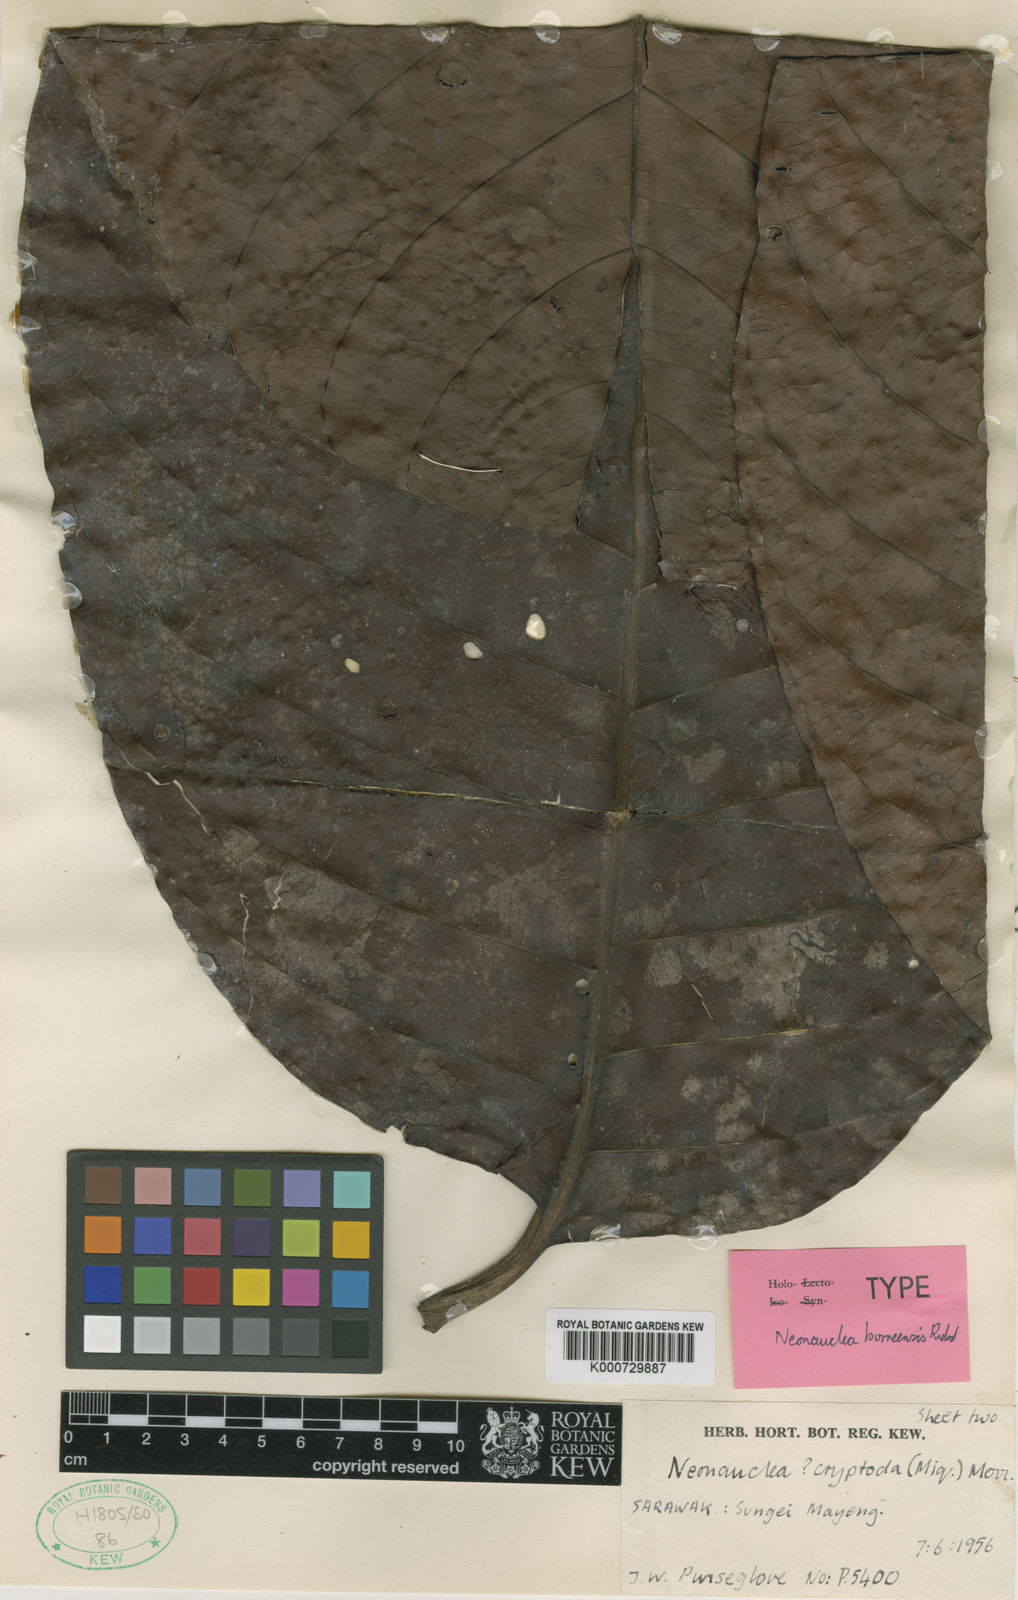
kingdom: Plantae
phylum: Tracheophyta
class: Magnoliopsida
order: Gentianales
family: Rubiaceae
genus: Neonauclea
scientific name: Neonauclea borneensis
